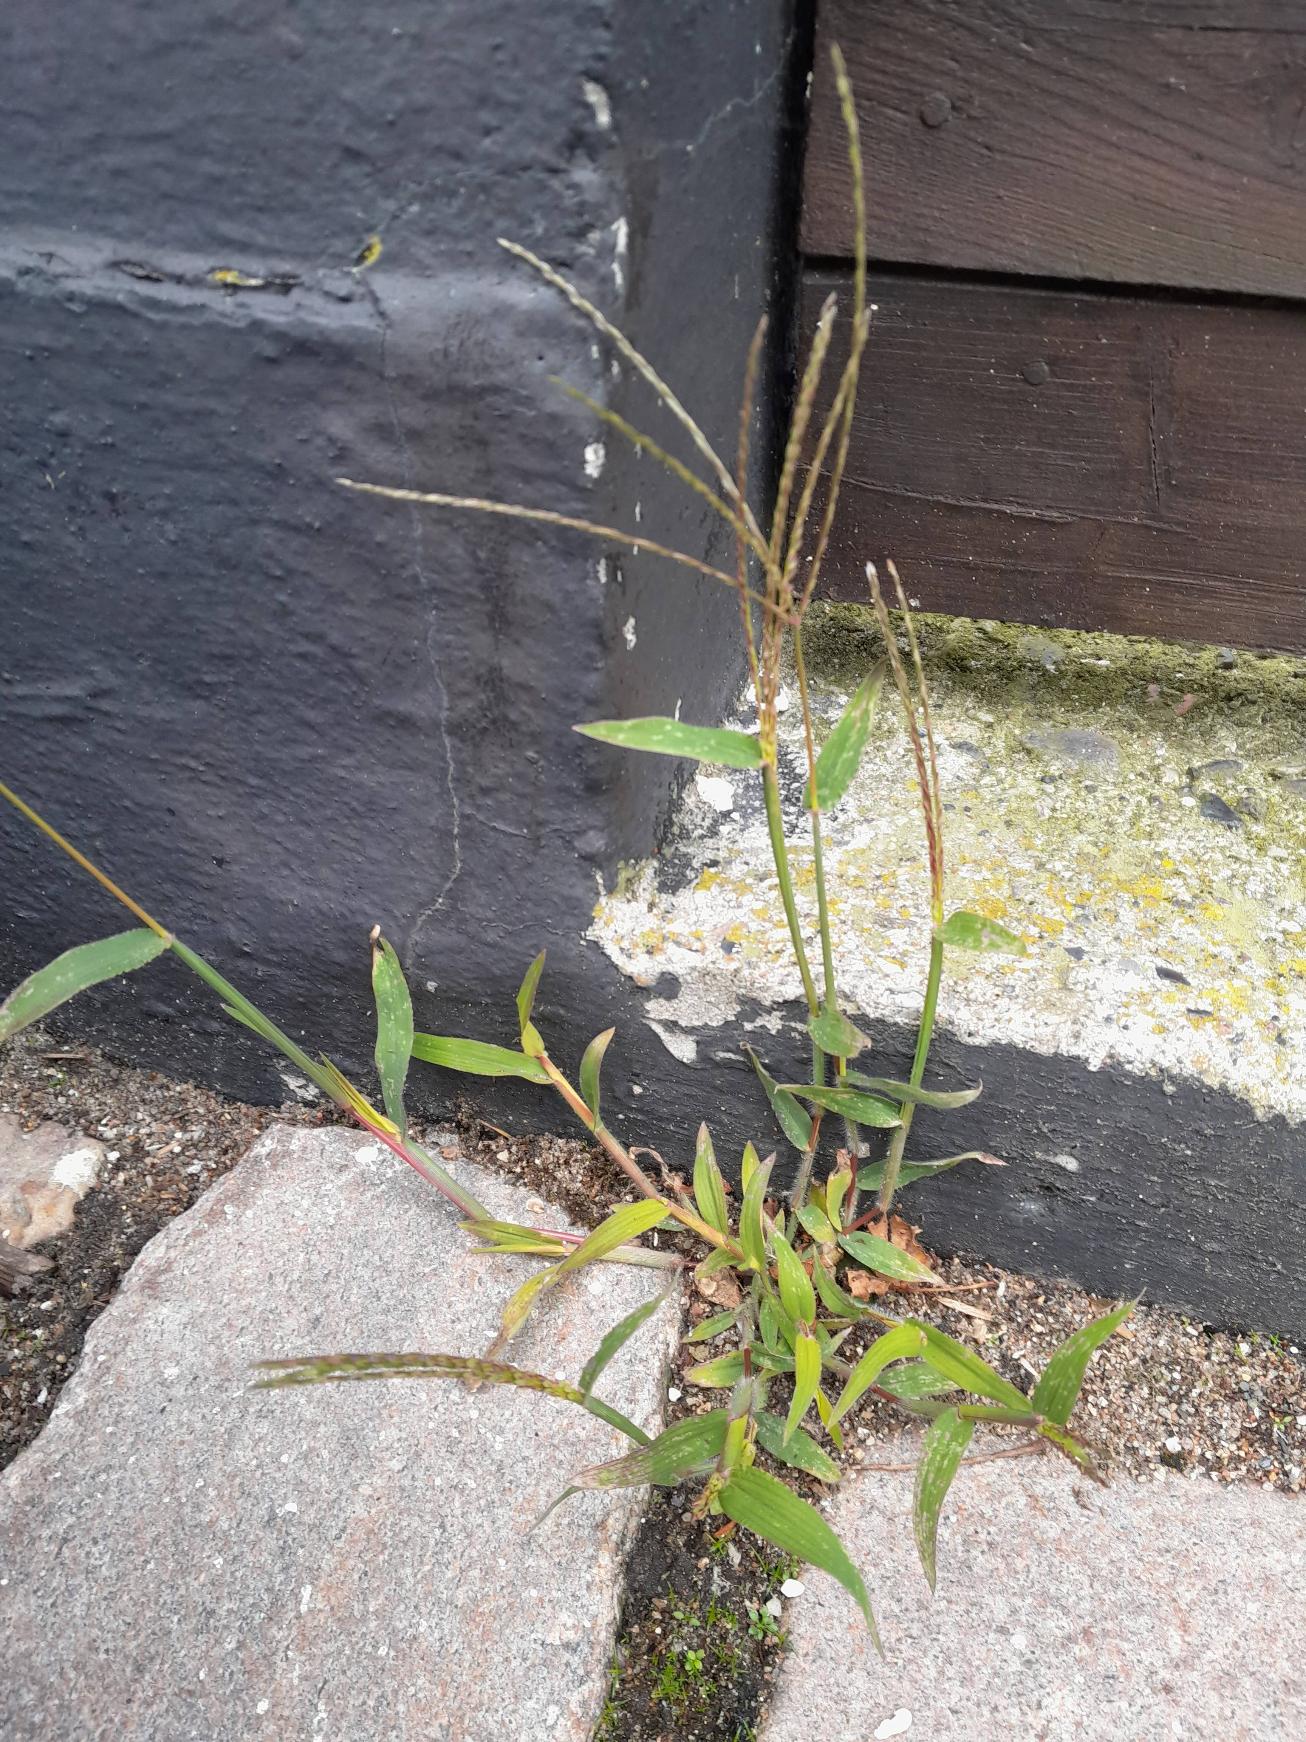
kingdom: Plantae
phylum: Tracheophyta
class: Liliopsida
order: Poales
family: Poaceae
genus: Digitaria
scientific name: Digitaria sanguinalis
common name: Blodhirse
